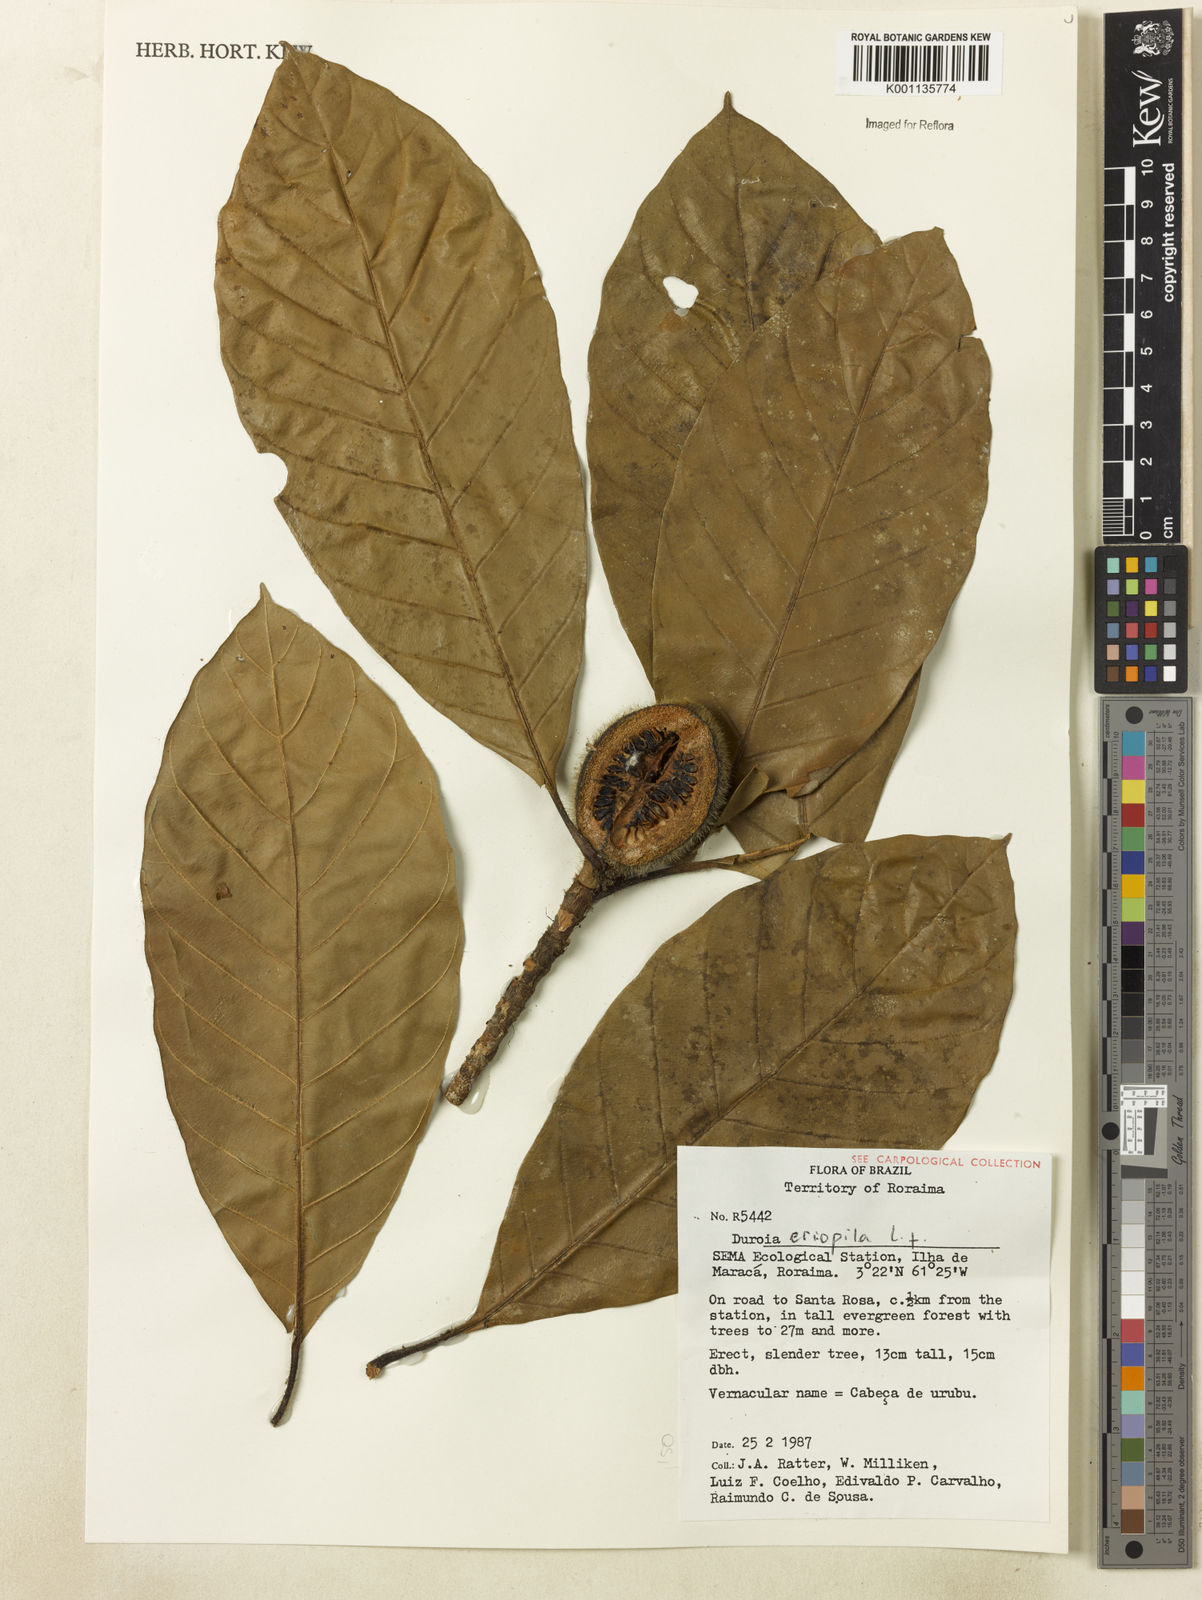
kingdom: Plantae
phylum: Tracheophyta
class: Magnoliopsida
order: Gentianales
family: Rubiaceae
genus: Duroia
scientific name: Duroia eriopila
